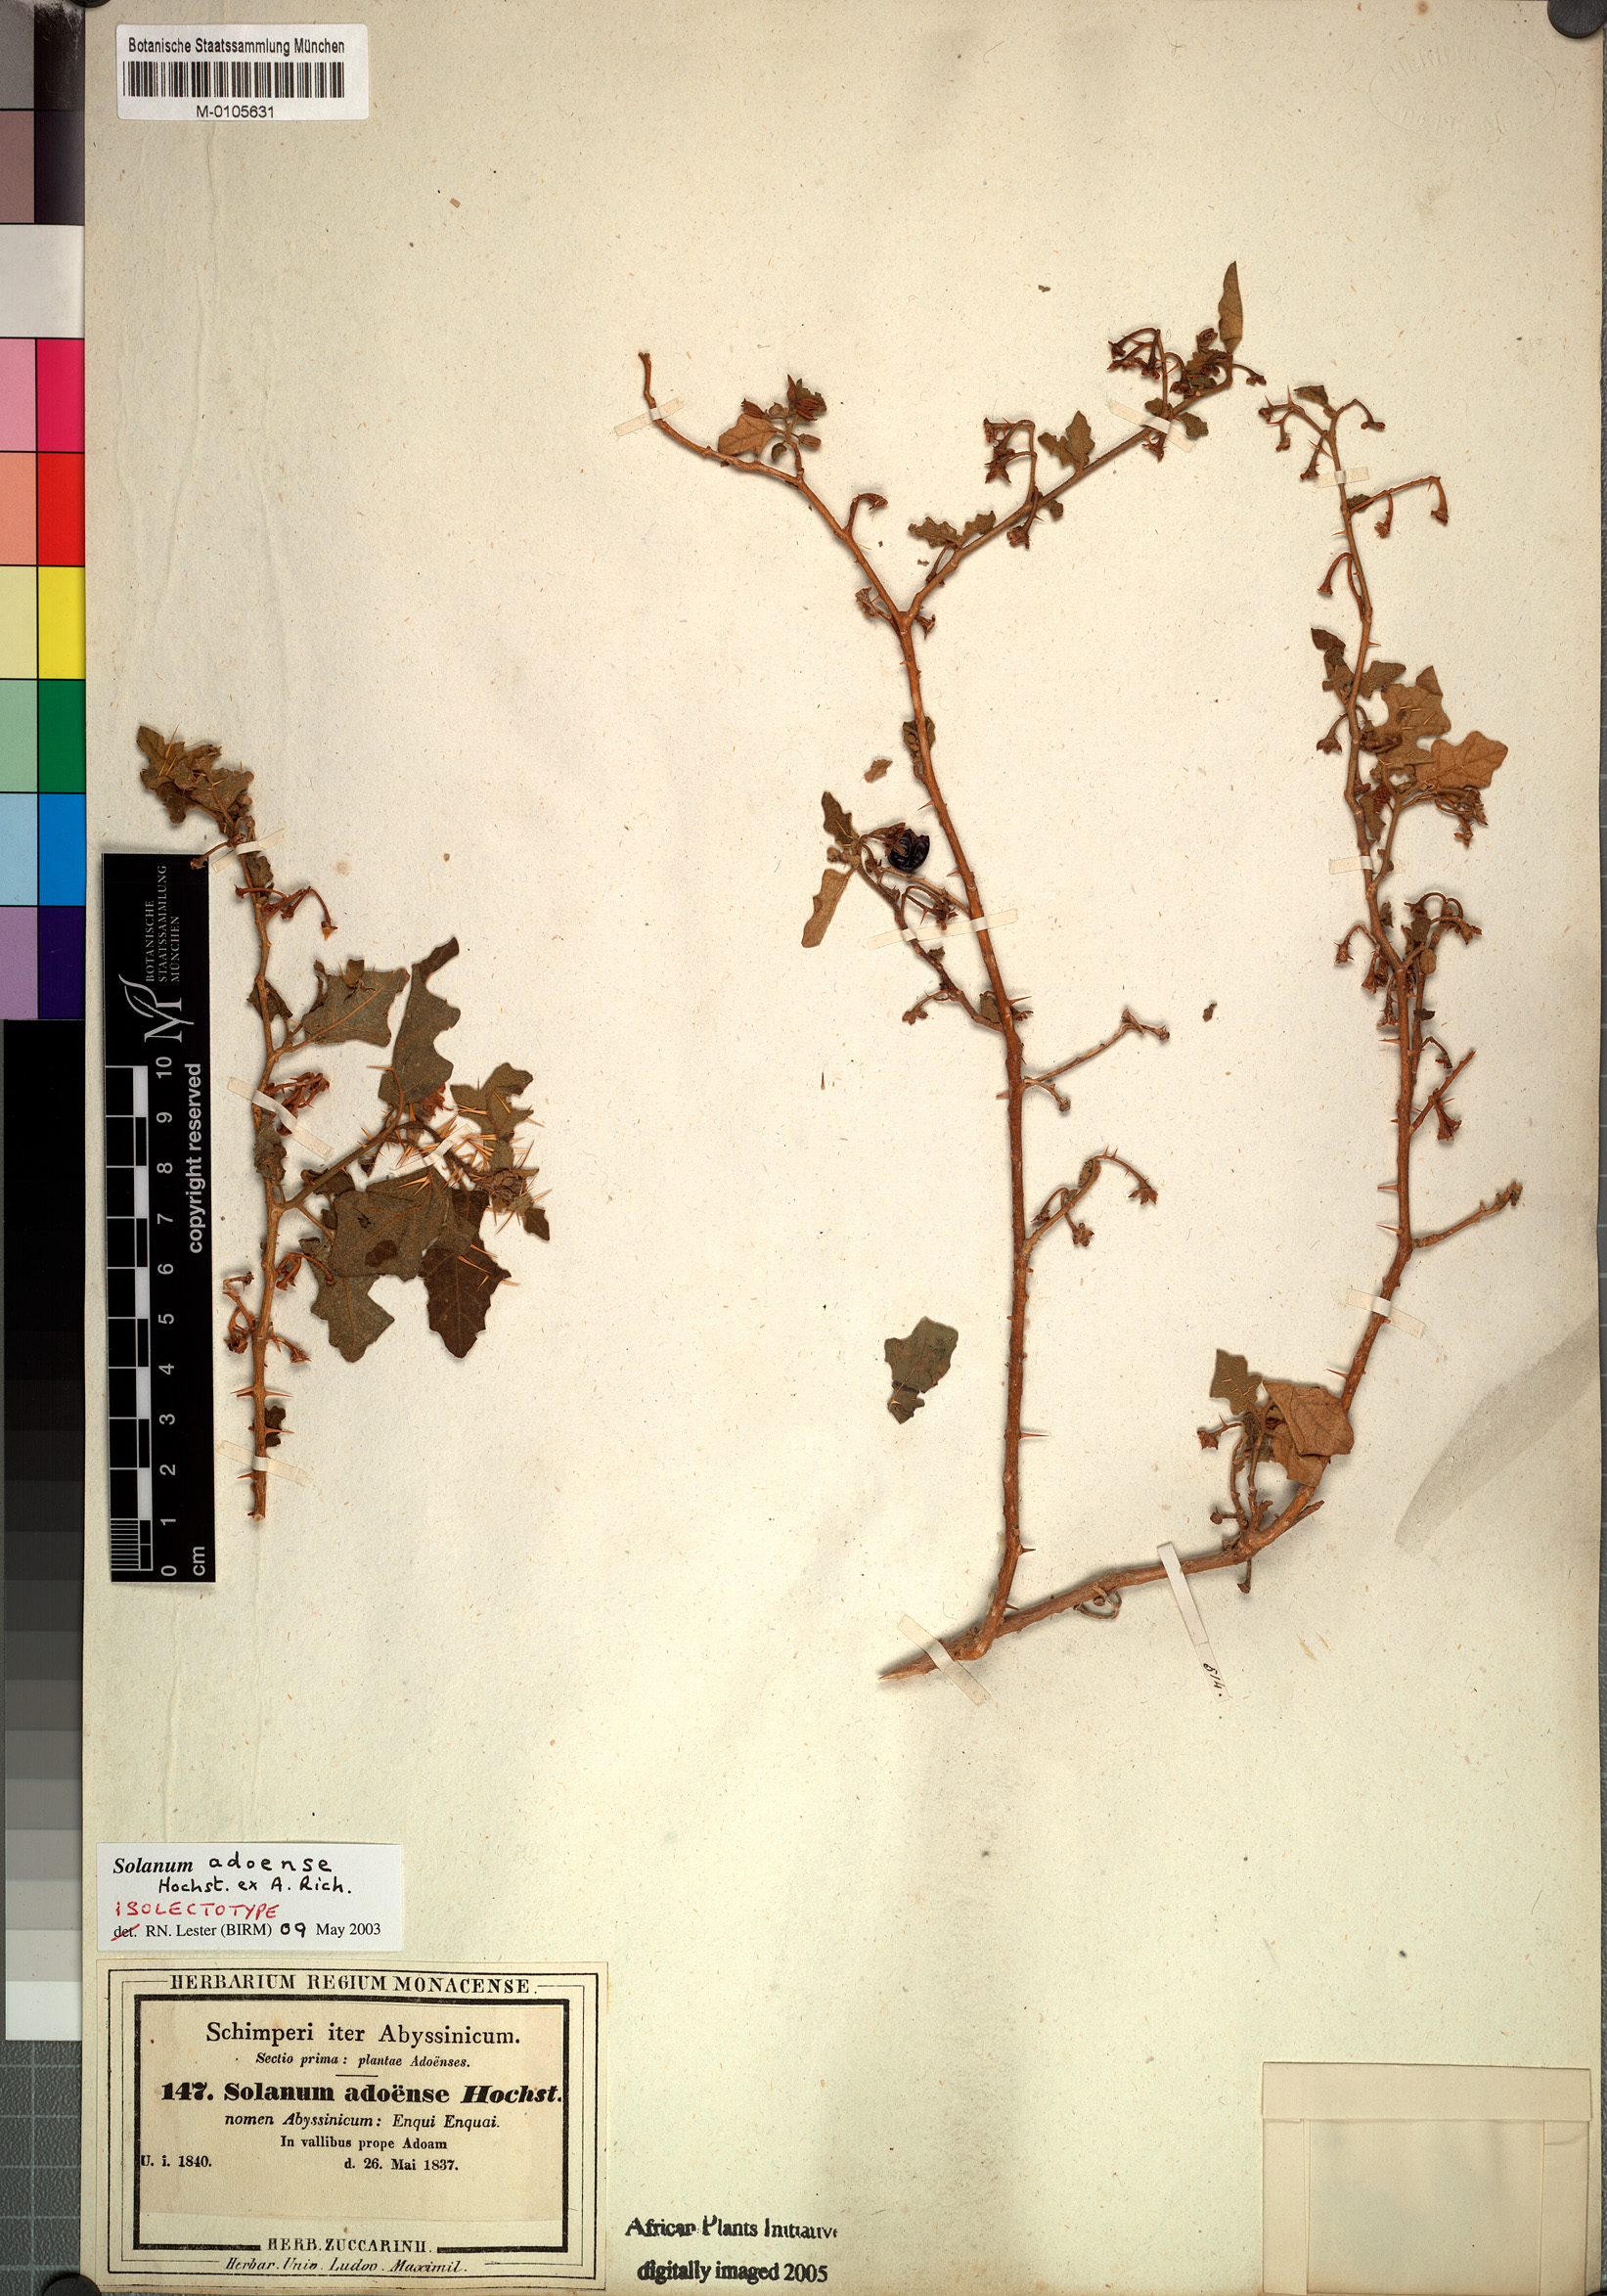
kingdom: Plantae
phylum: Tracheophyta
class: Magnoliopsida
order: Solanales
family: Solanaceae
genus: Solanum
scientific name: Solanum adoense
